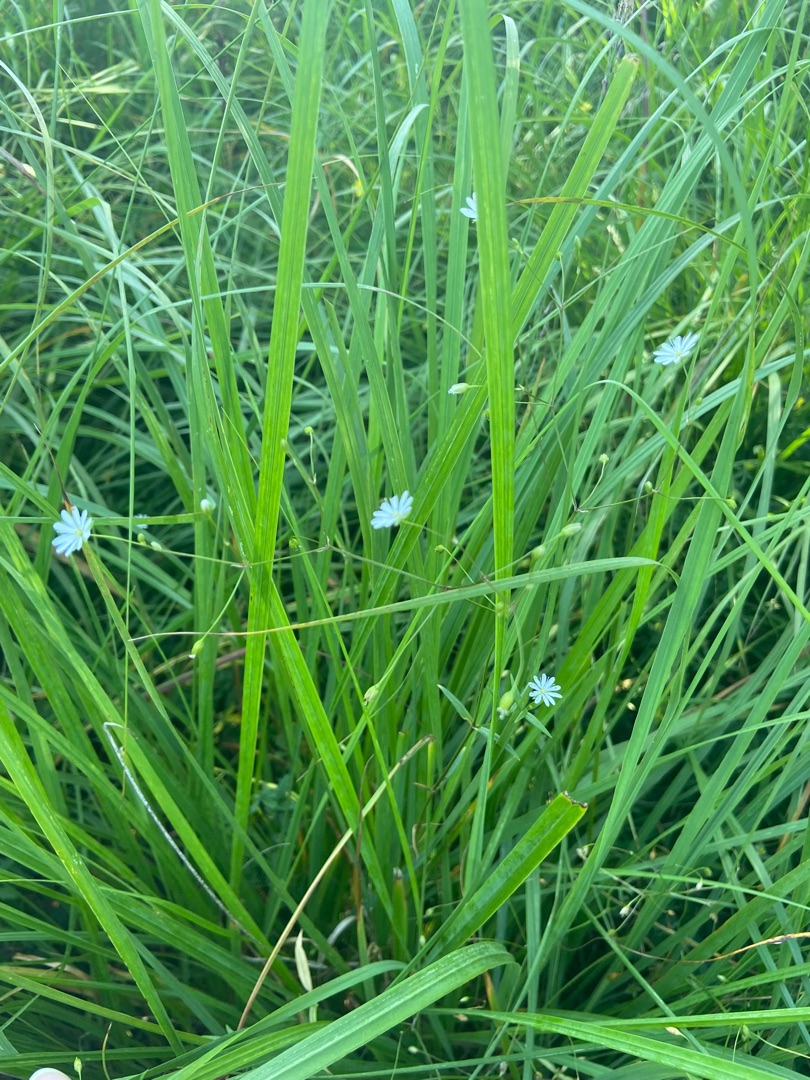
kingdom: Plantae
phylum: Tracheophyta
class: Magnoliopsida
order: Caryophyllales
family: Caryophyllaceae
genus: Stellaria
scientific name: Stellaria graminea
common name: Græsbladet fladstjerne
